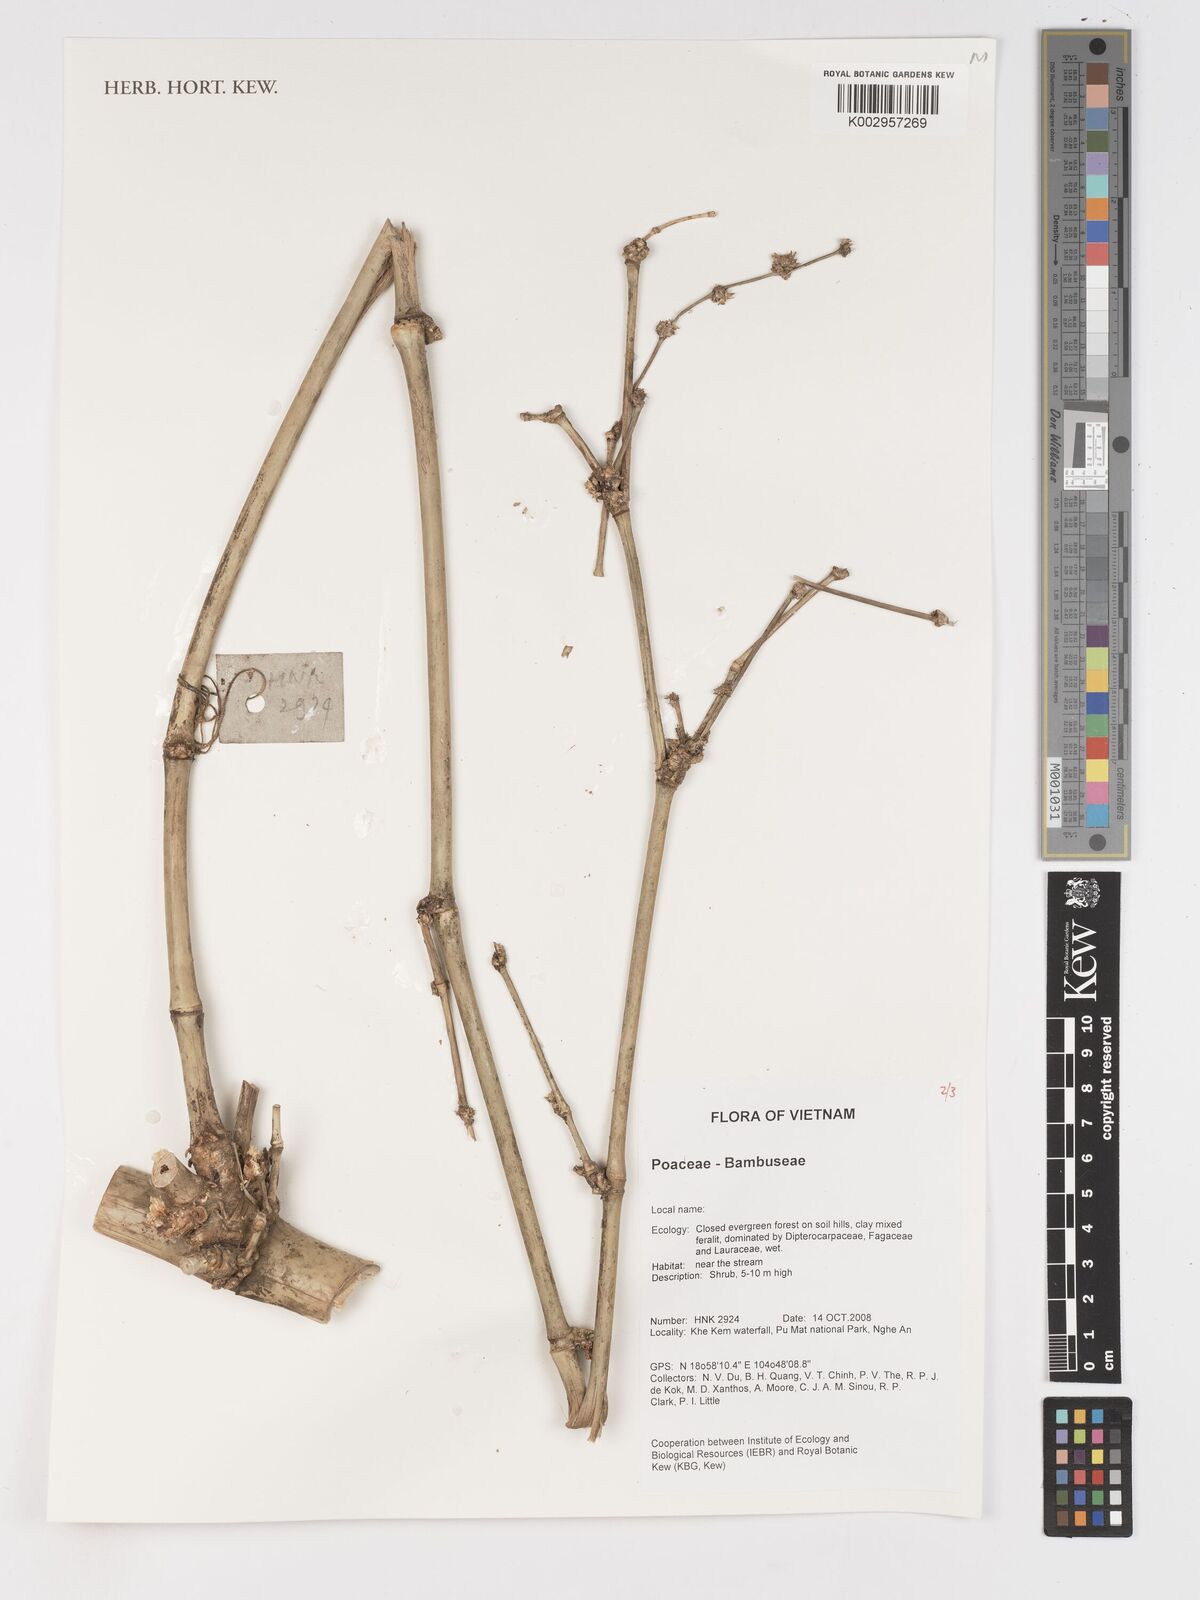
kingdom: Plantae
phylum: Tracheophyta
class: Liliopsida
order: Poales
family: Poaceae
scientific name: Poaceae
